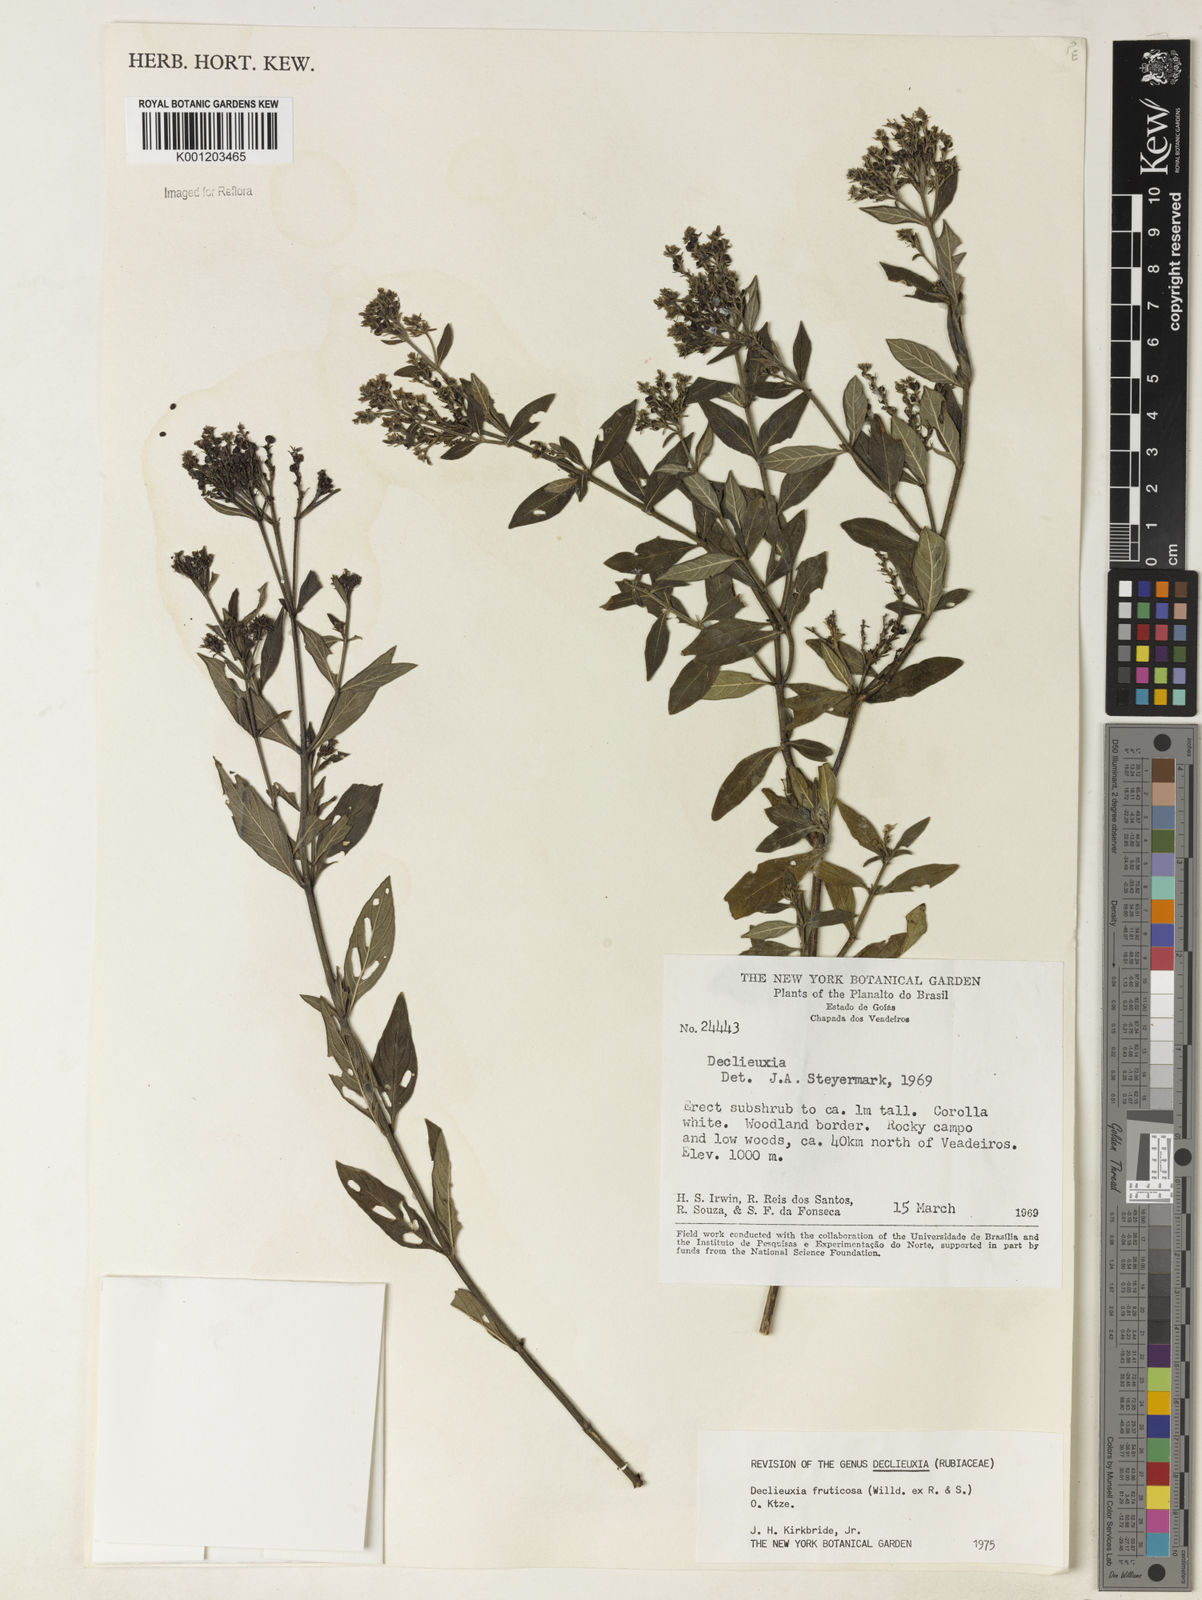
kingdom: Plantae
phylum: Tracheophyta
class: Magnoliopsida
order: Gentianales
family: Rubiaceae
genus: Declieuxia
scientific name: Declieuxia fruticosa
